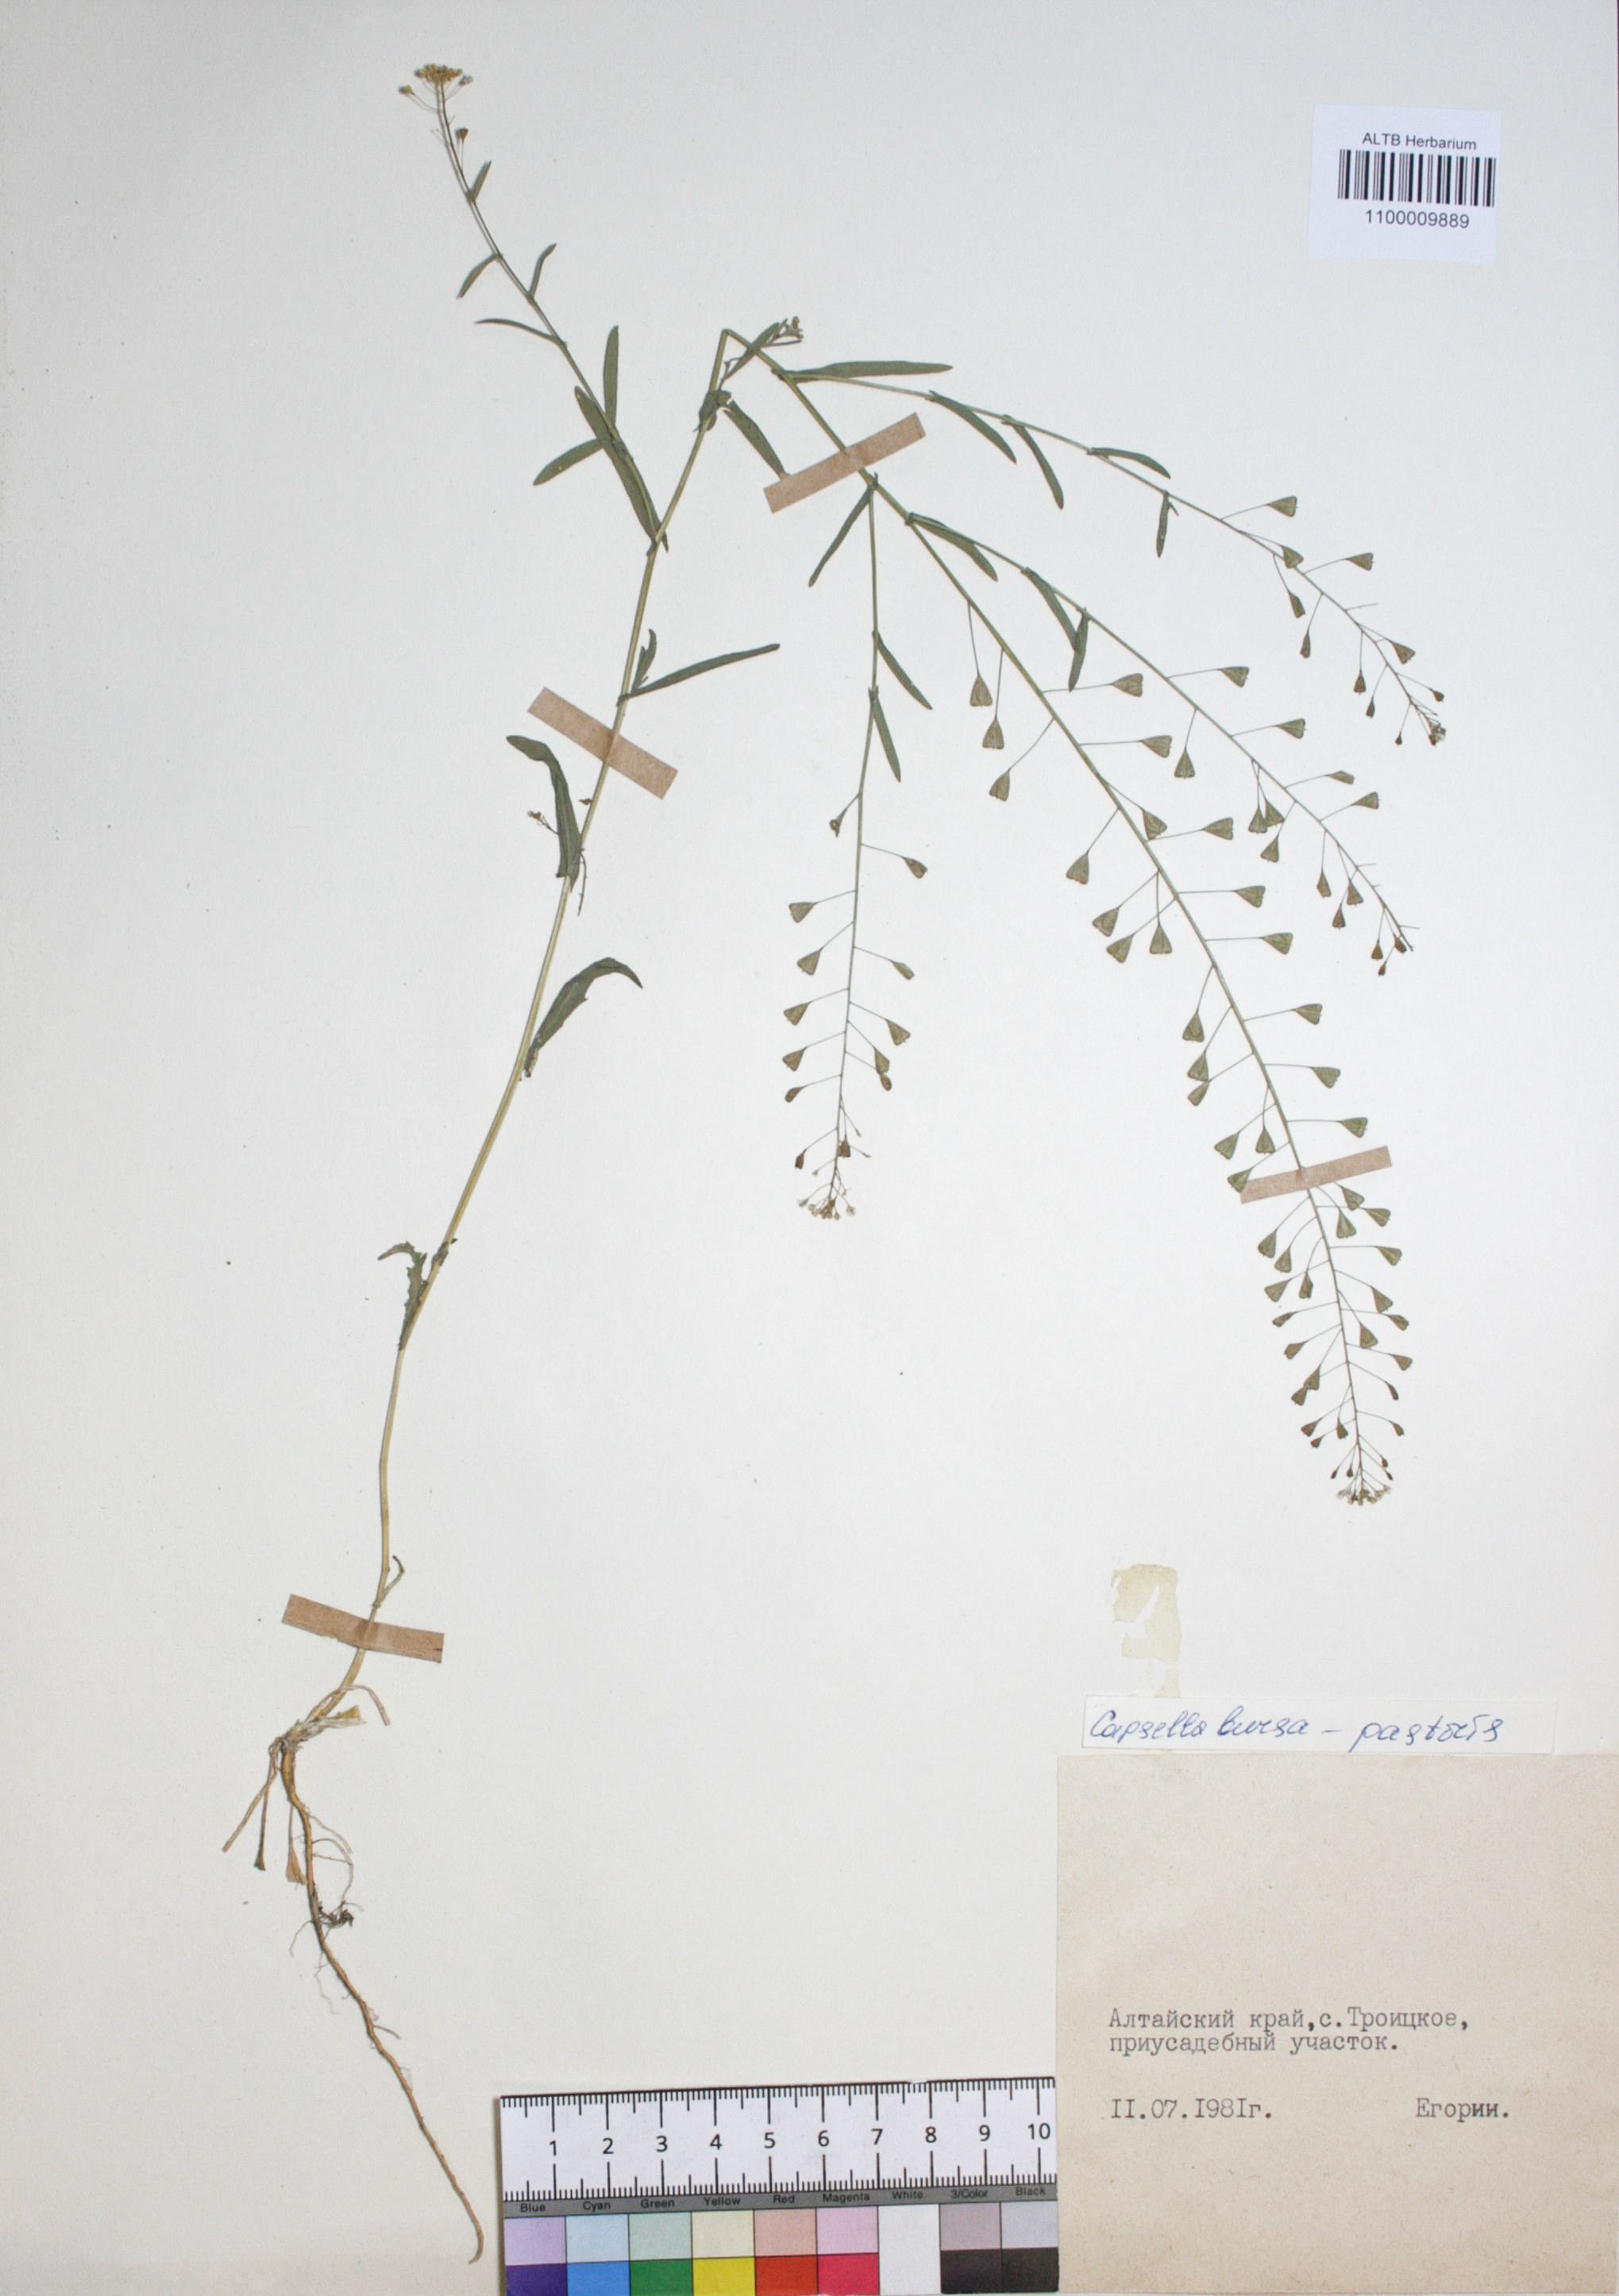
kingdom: Plantae
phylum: Tracheophyta
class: Magnoliopsida
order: Brassicales
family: Brassicaceae
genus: Capsella
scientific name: Capsella bursa-pastoris
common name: Shepherd's purse
